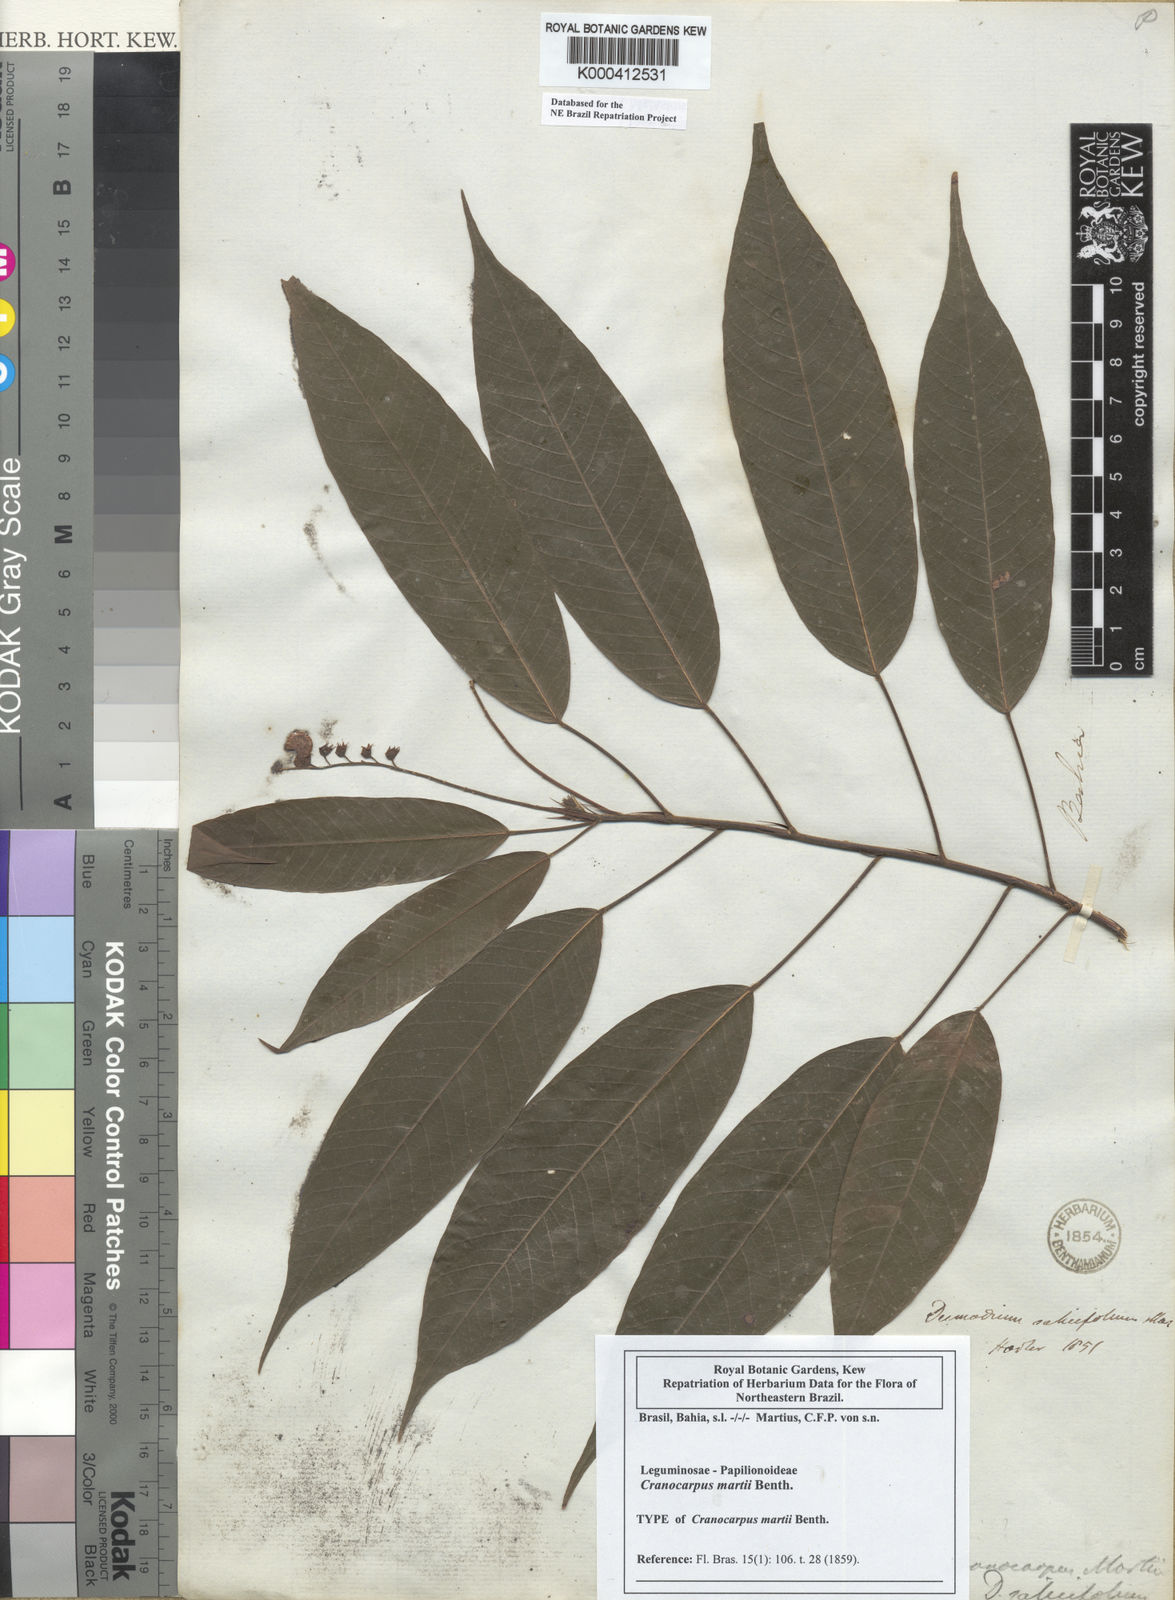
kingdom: Plantae
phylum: Tracheophyta
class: Magnoliopsida
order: Fabales
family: Fabaceae
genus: Cranocarpus
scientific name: Cranocarpus martii
